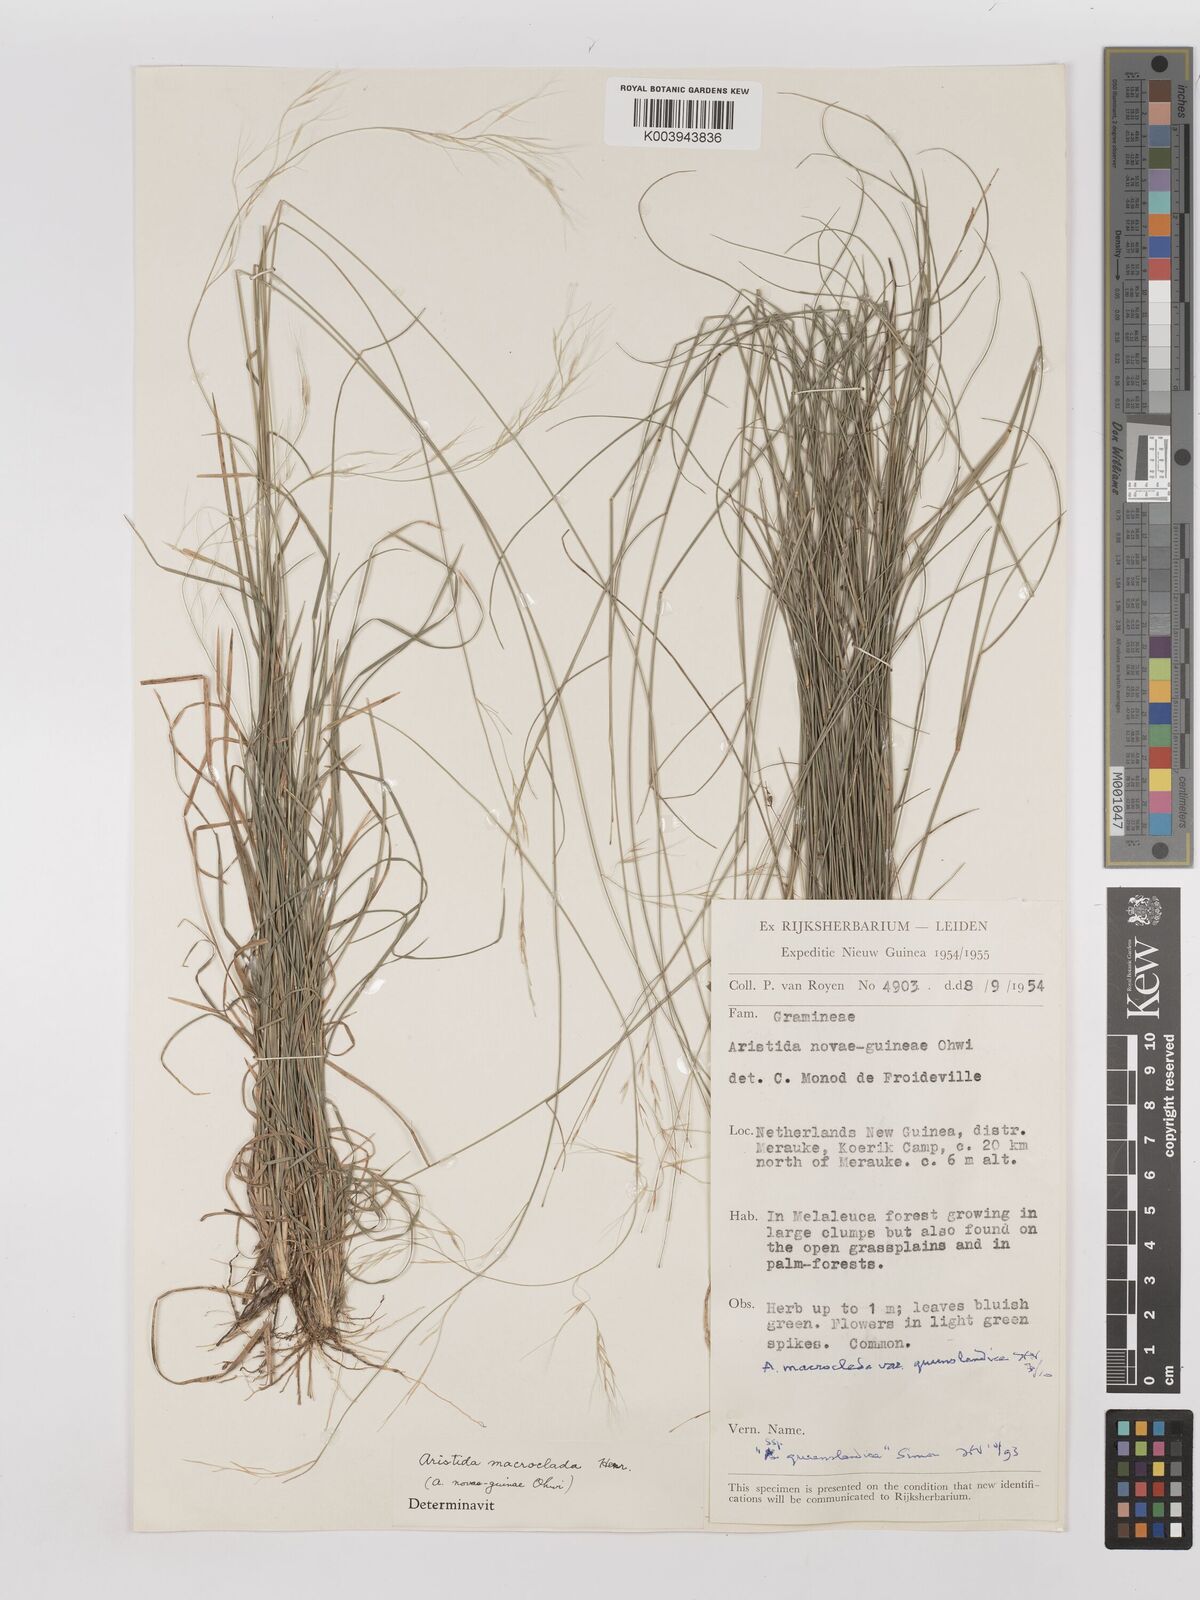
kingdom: Plantae
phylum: Tracheophyta
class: Liliopsida
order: Poales
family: Poaceae
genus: Aristida
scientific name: Aristida macroclada
